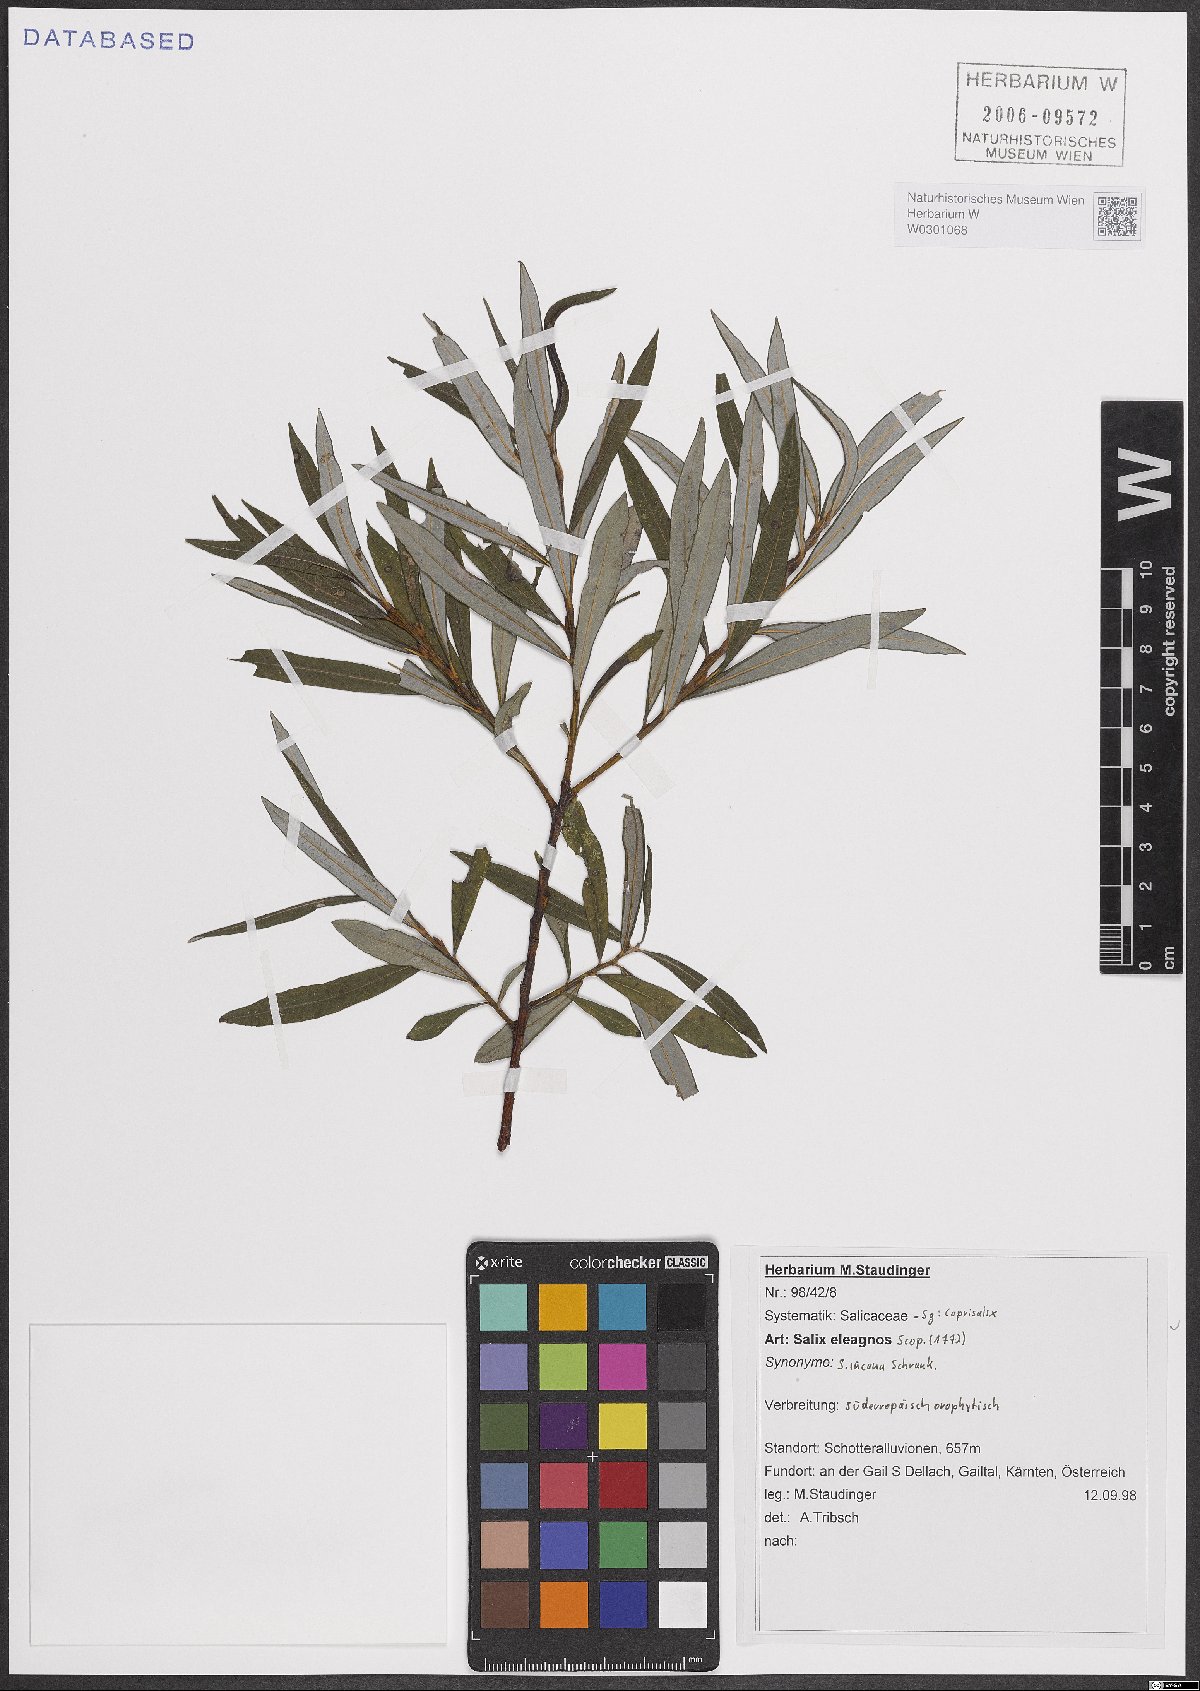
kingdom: Plantae
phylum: Tracheophyta
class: Magnoliopsida
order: Malpighiales
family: Salicaceae
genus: Salix
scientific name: Salix eleagnos
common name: Elaeagnus willow
